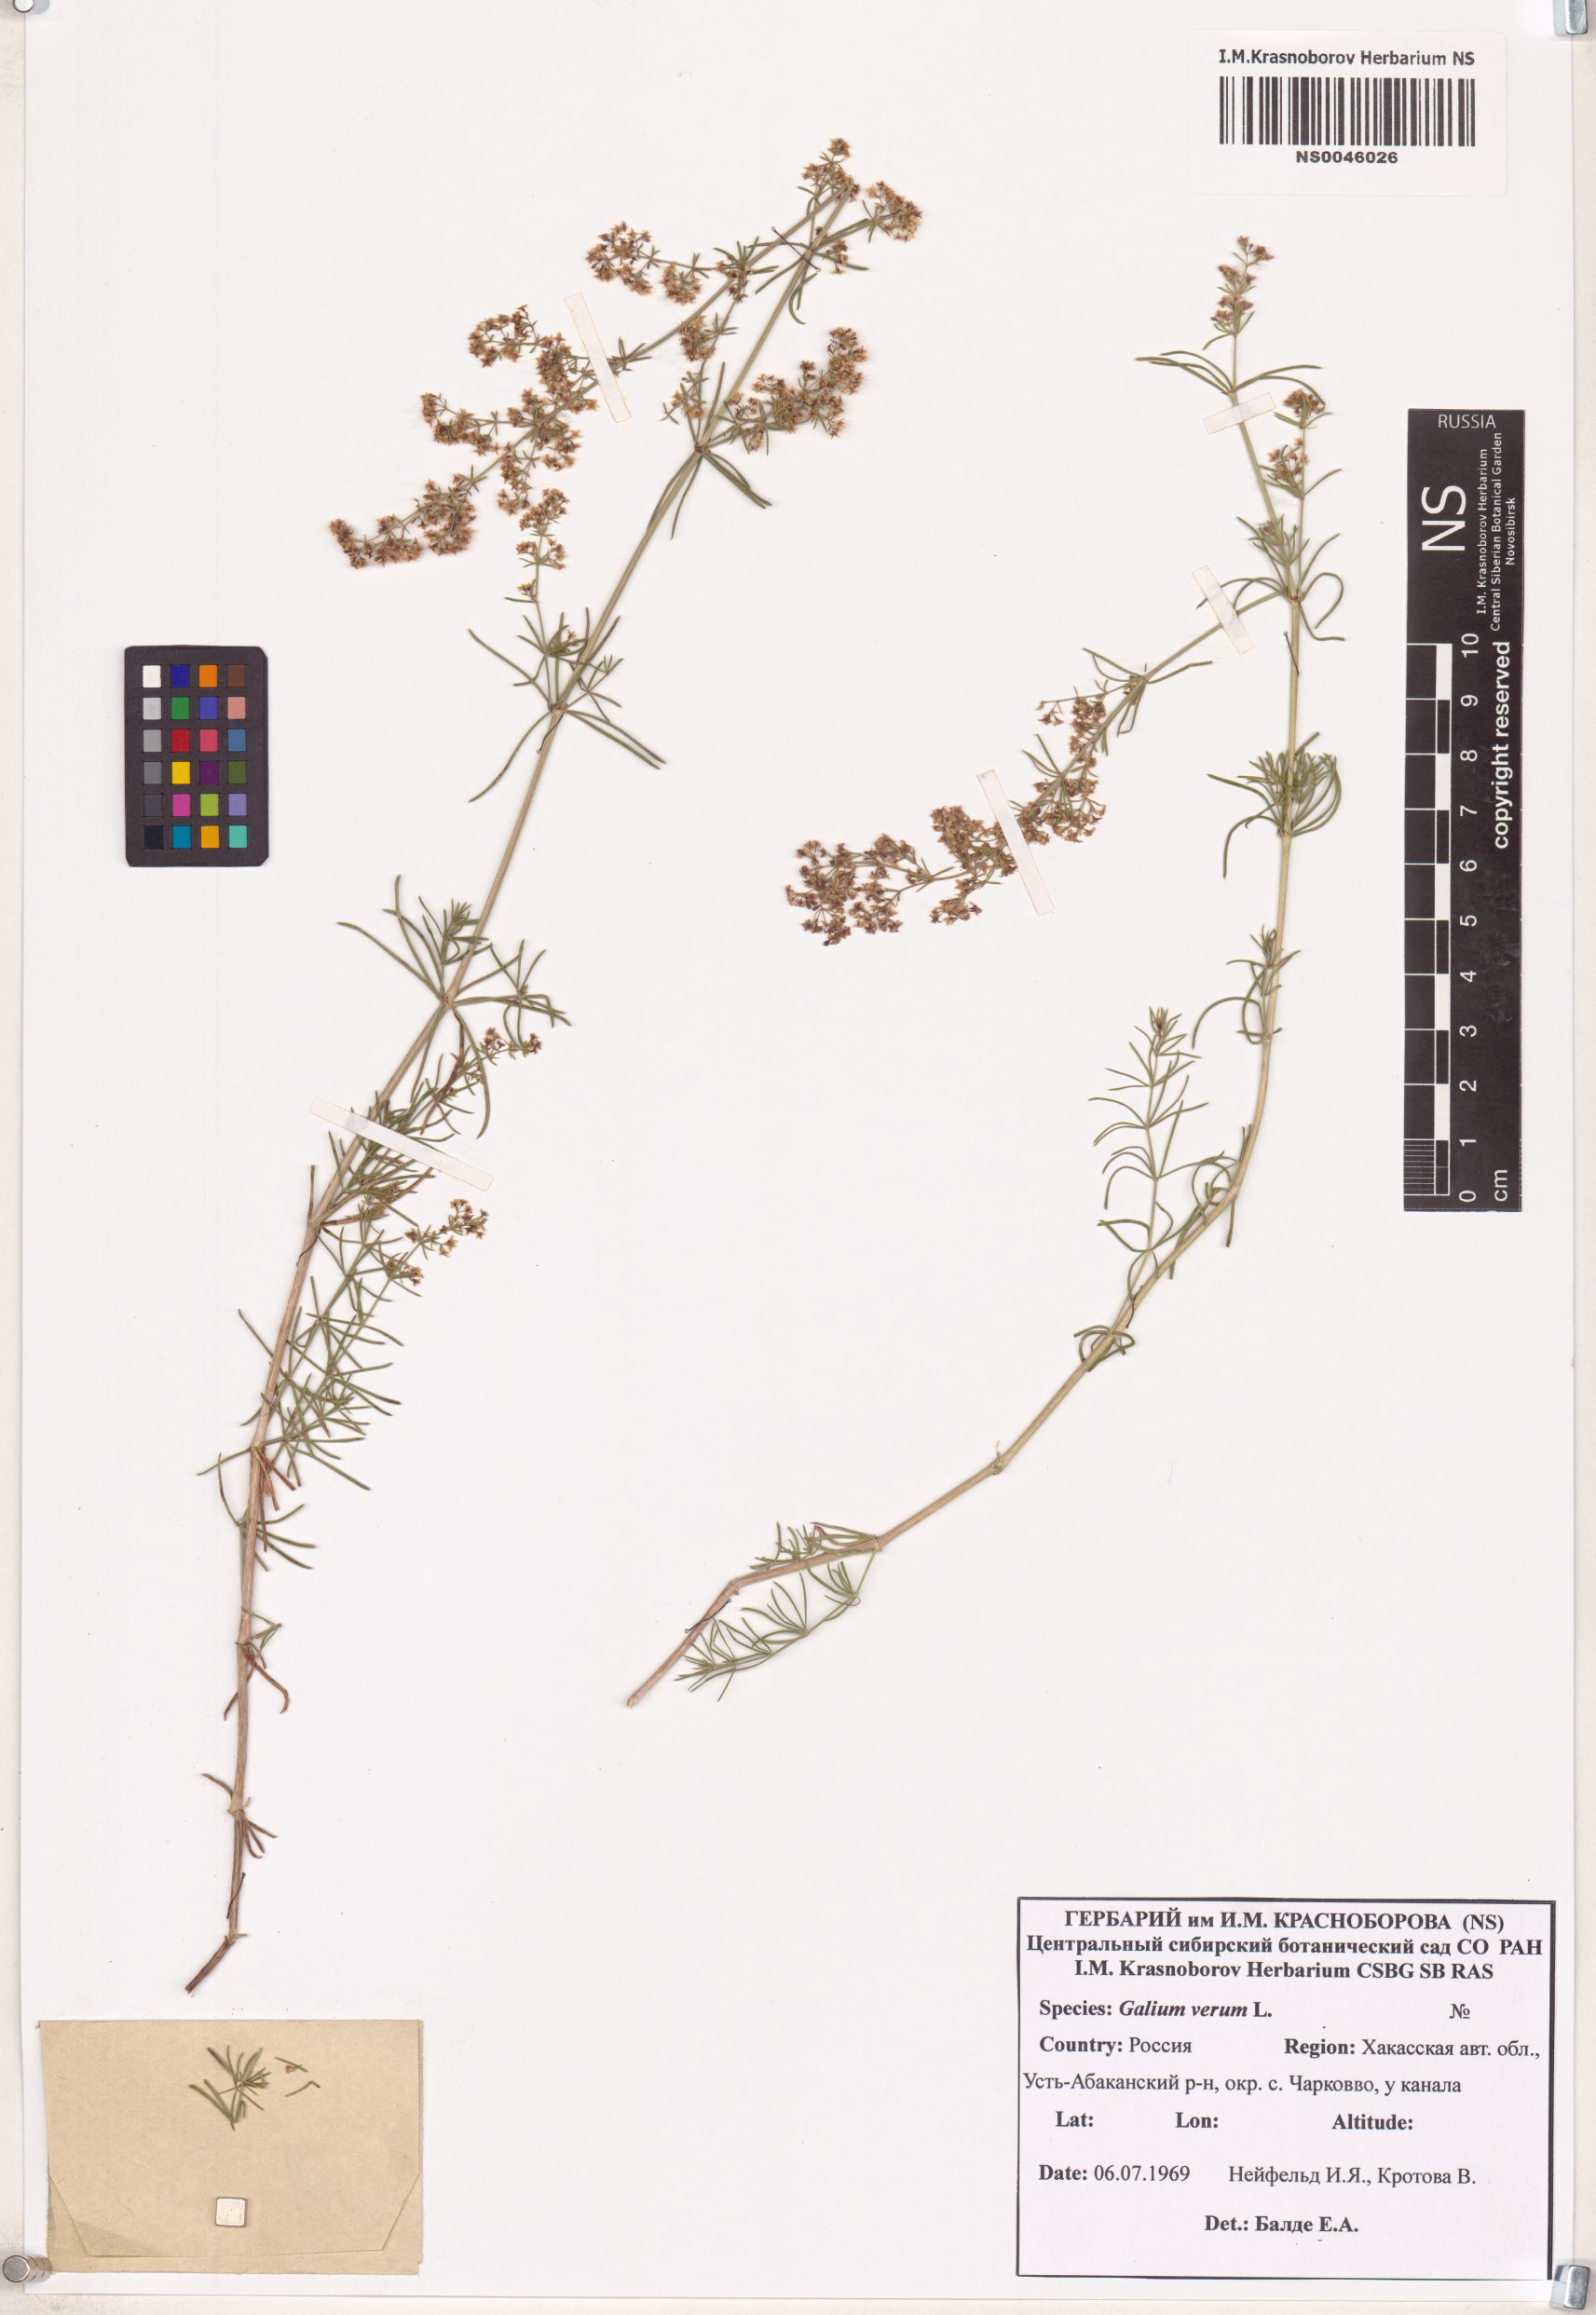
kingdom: Plantae
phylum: Tracheophyta
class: Magnoliopsida
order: Gentianales
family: Rubiaceae
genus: Galium
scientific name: Galium verum
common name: Lady's bedstraw
